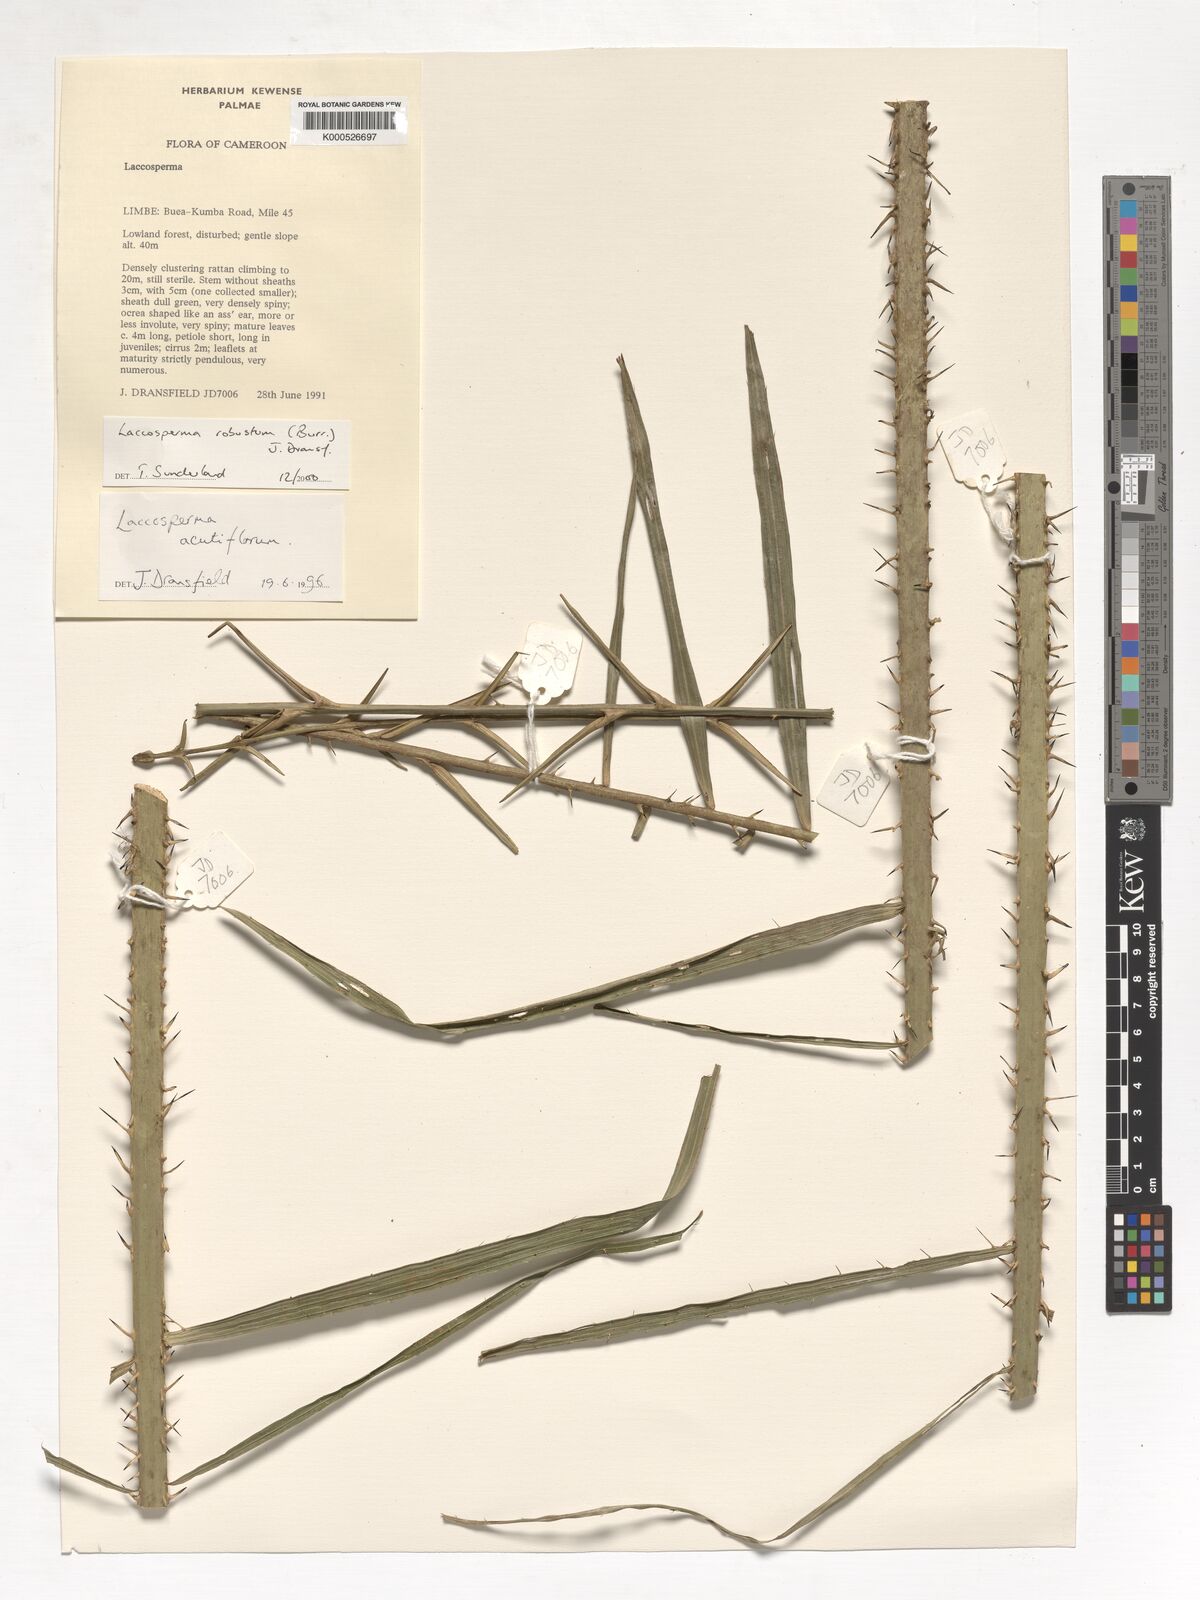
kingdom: Plantae
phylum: Tracheophyta
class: Liliopsida
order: Arecales
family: Arecaceae
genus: Laccosperma
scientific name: Laccosperma robustum
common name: Rattan
